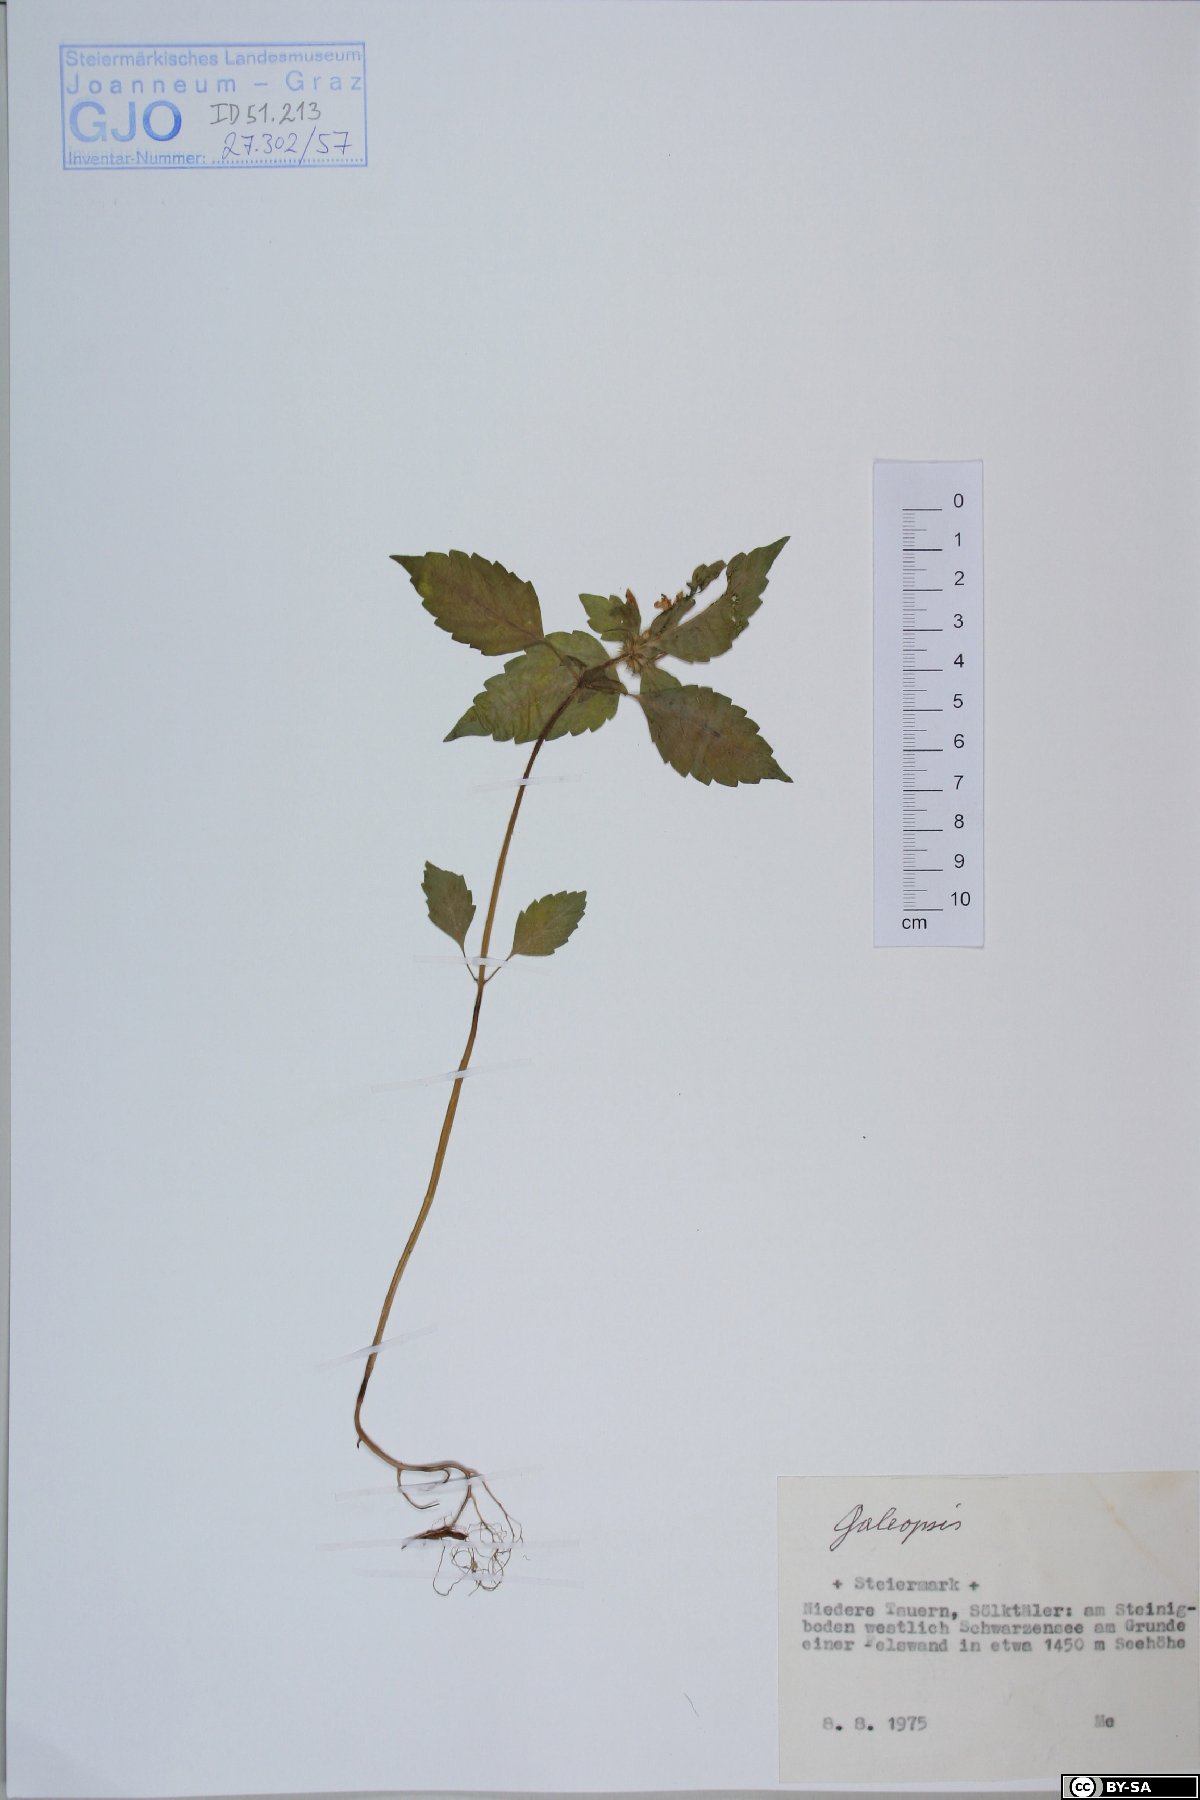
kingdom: Plantae
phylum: Tracheophyta
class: Magnoliopsida
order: Lamiales
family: Lamiaceae
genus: Galeopsis
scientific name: Galeopsis
